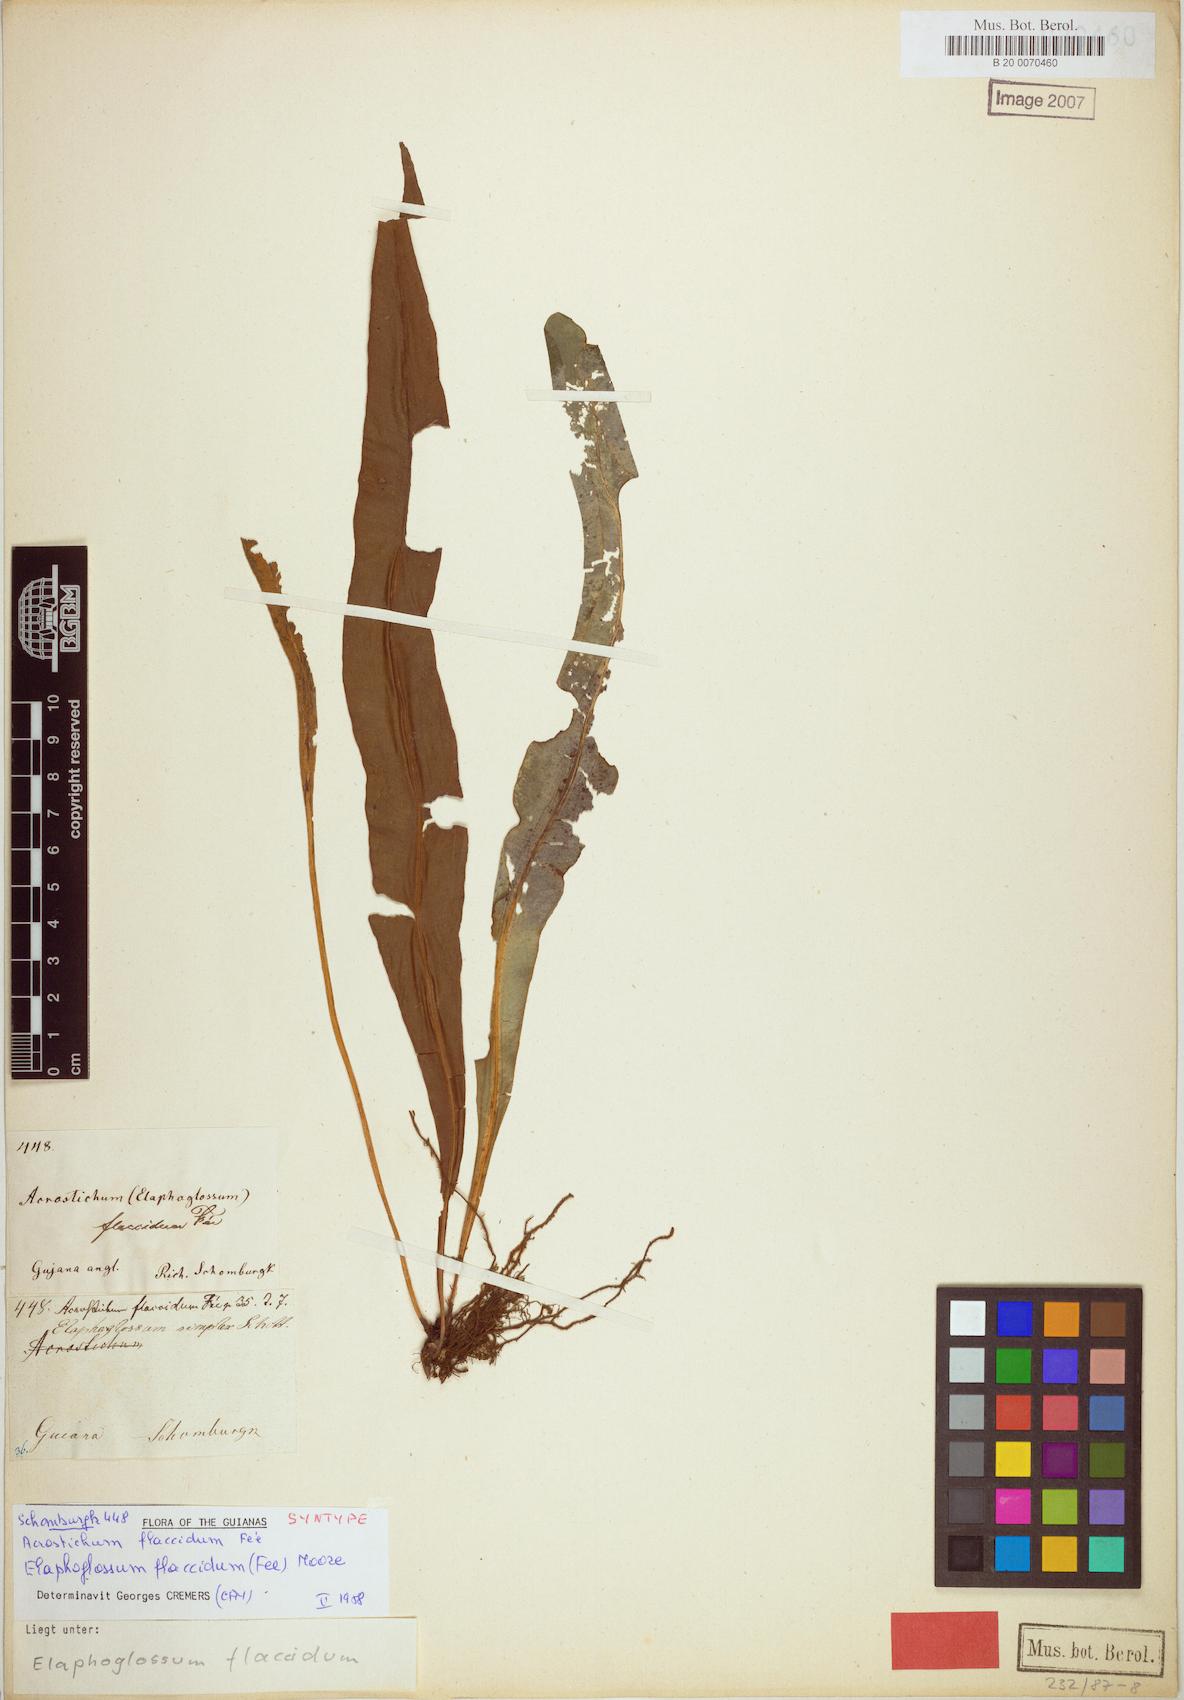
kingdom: Plantae
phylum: Tracheophyta
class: Polypodiopsida
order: Polypodiales
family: Dryopteridaceae
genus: Elaphoglossum
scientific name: Elaphoglossum flaccidum
